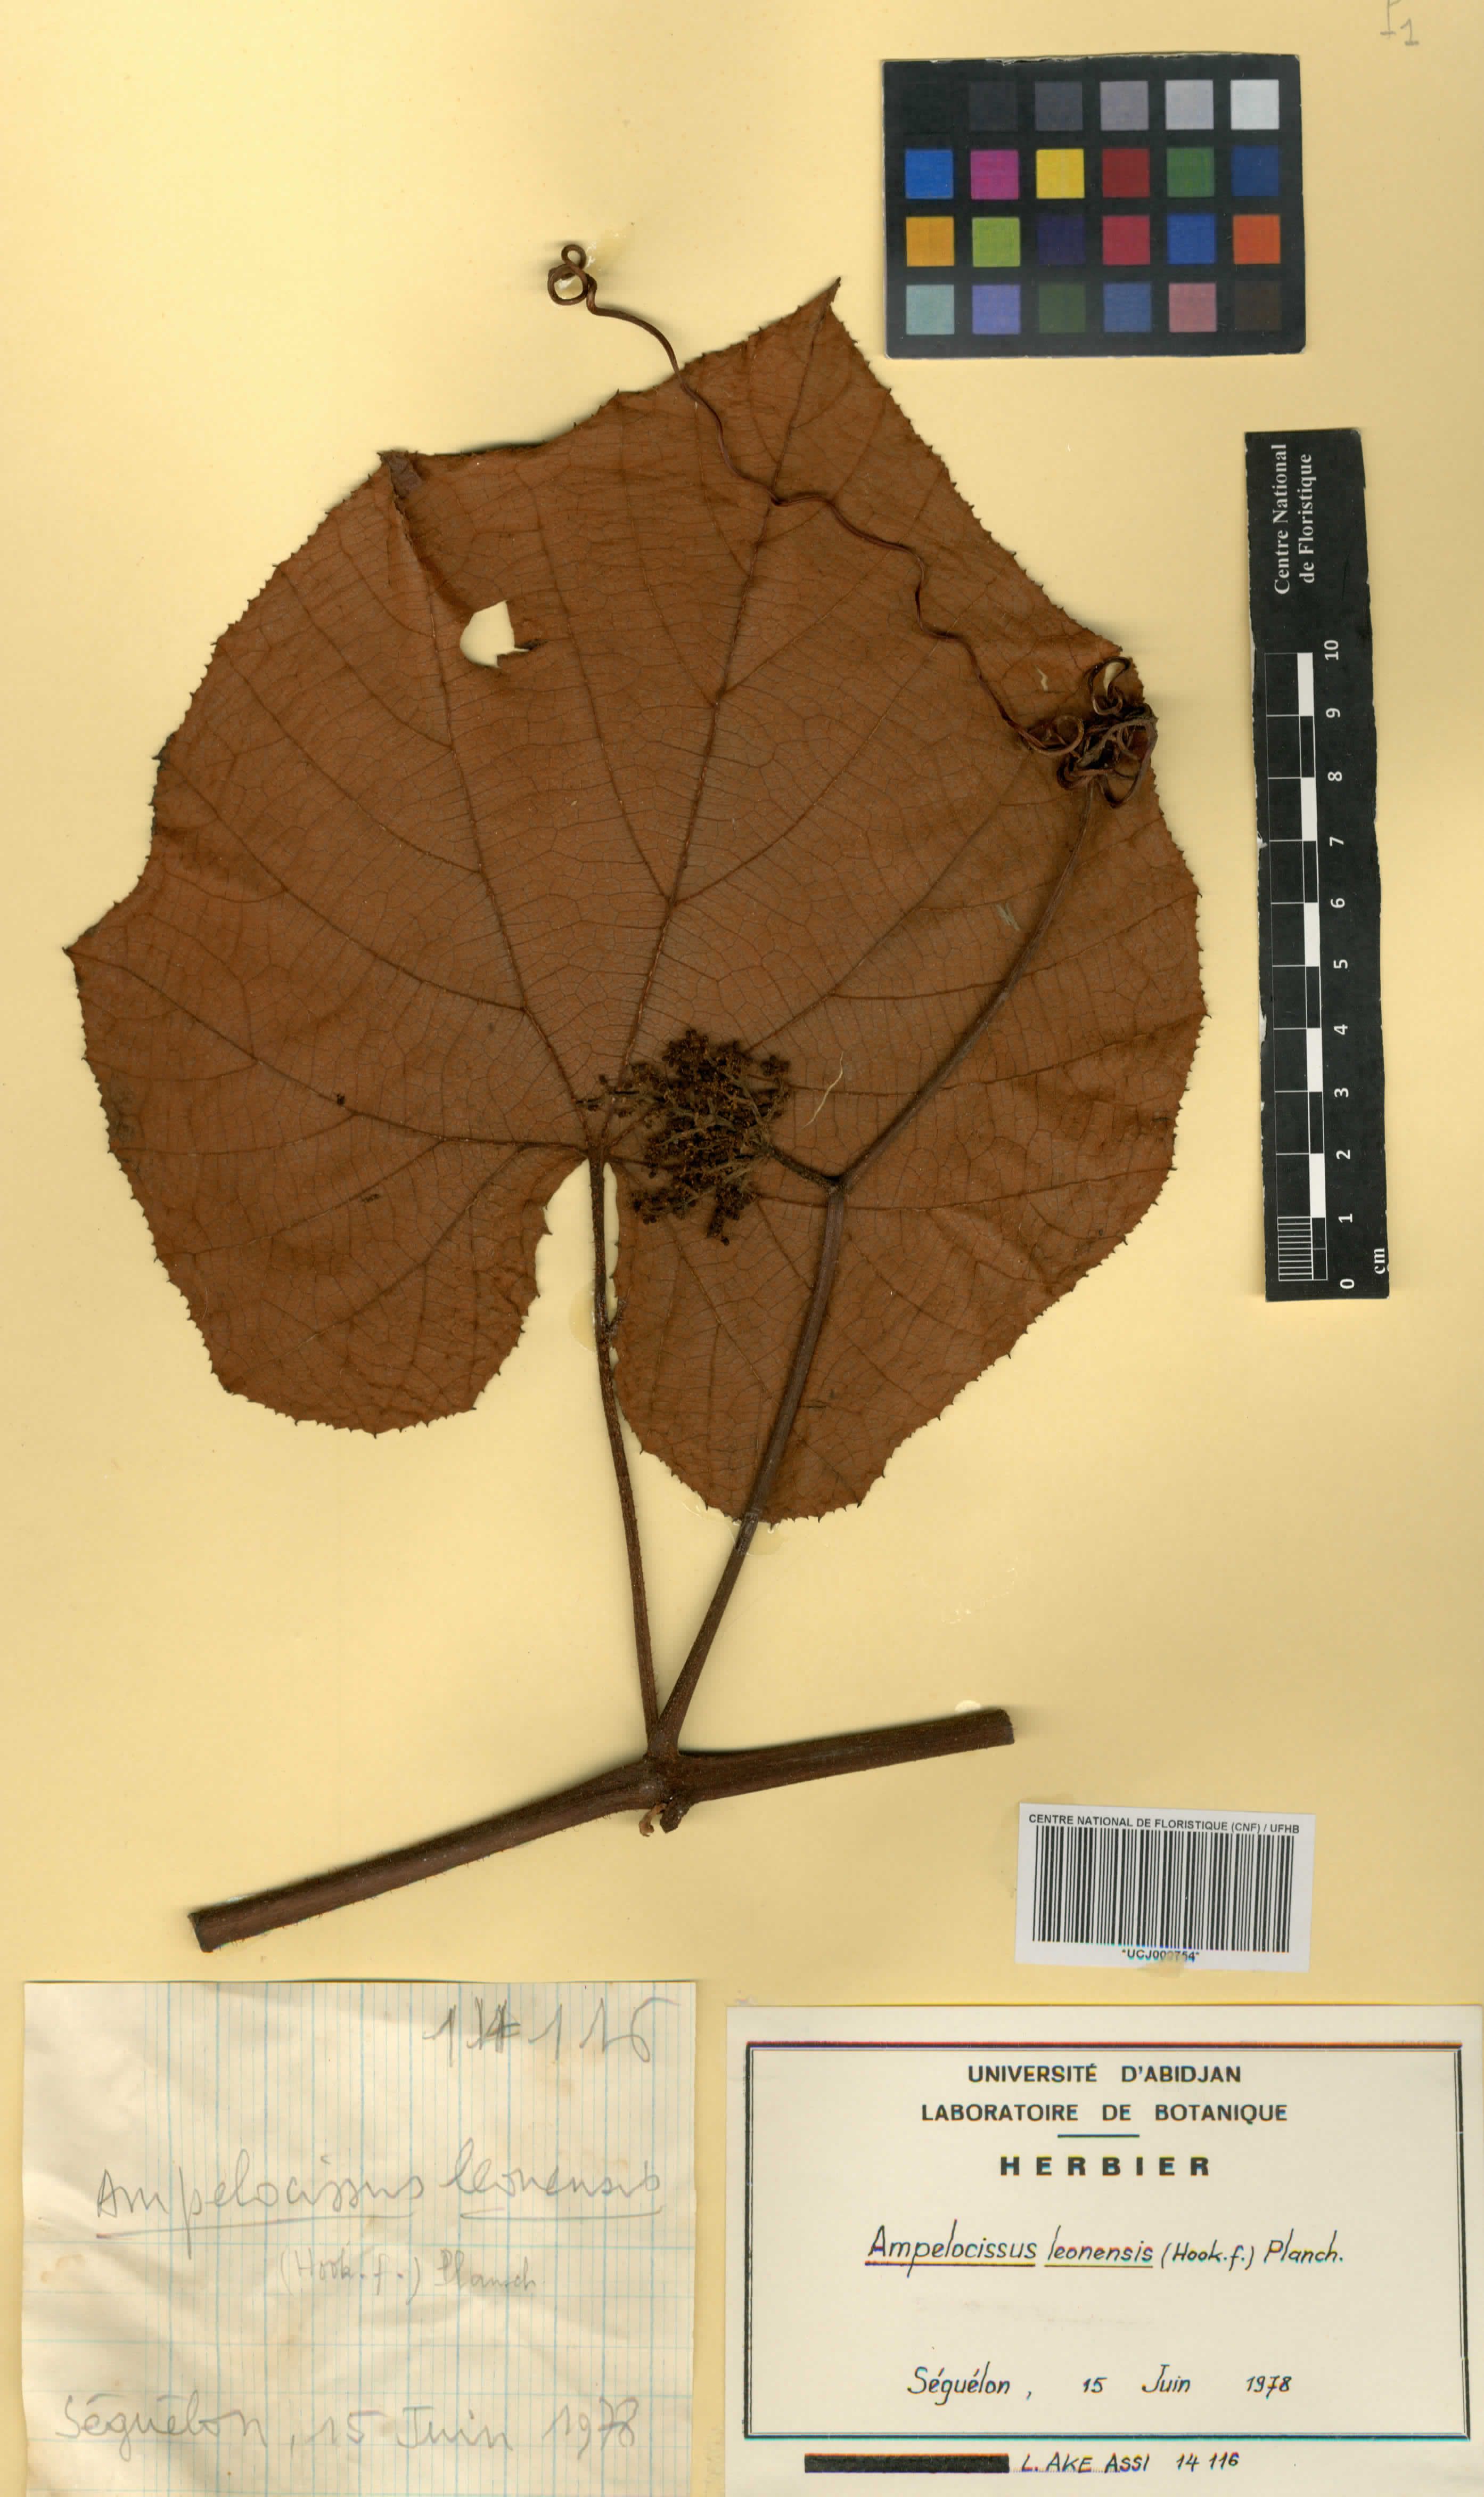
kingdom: Plantae
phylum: Tracheophyta
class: Magnoliopsida
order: Vitales
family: Vitaceae
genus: Ampelocissus
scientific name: Ampelocissus leonensis
